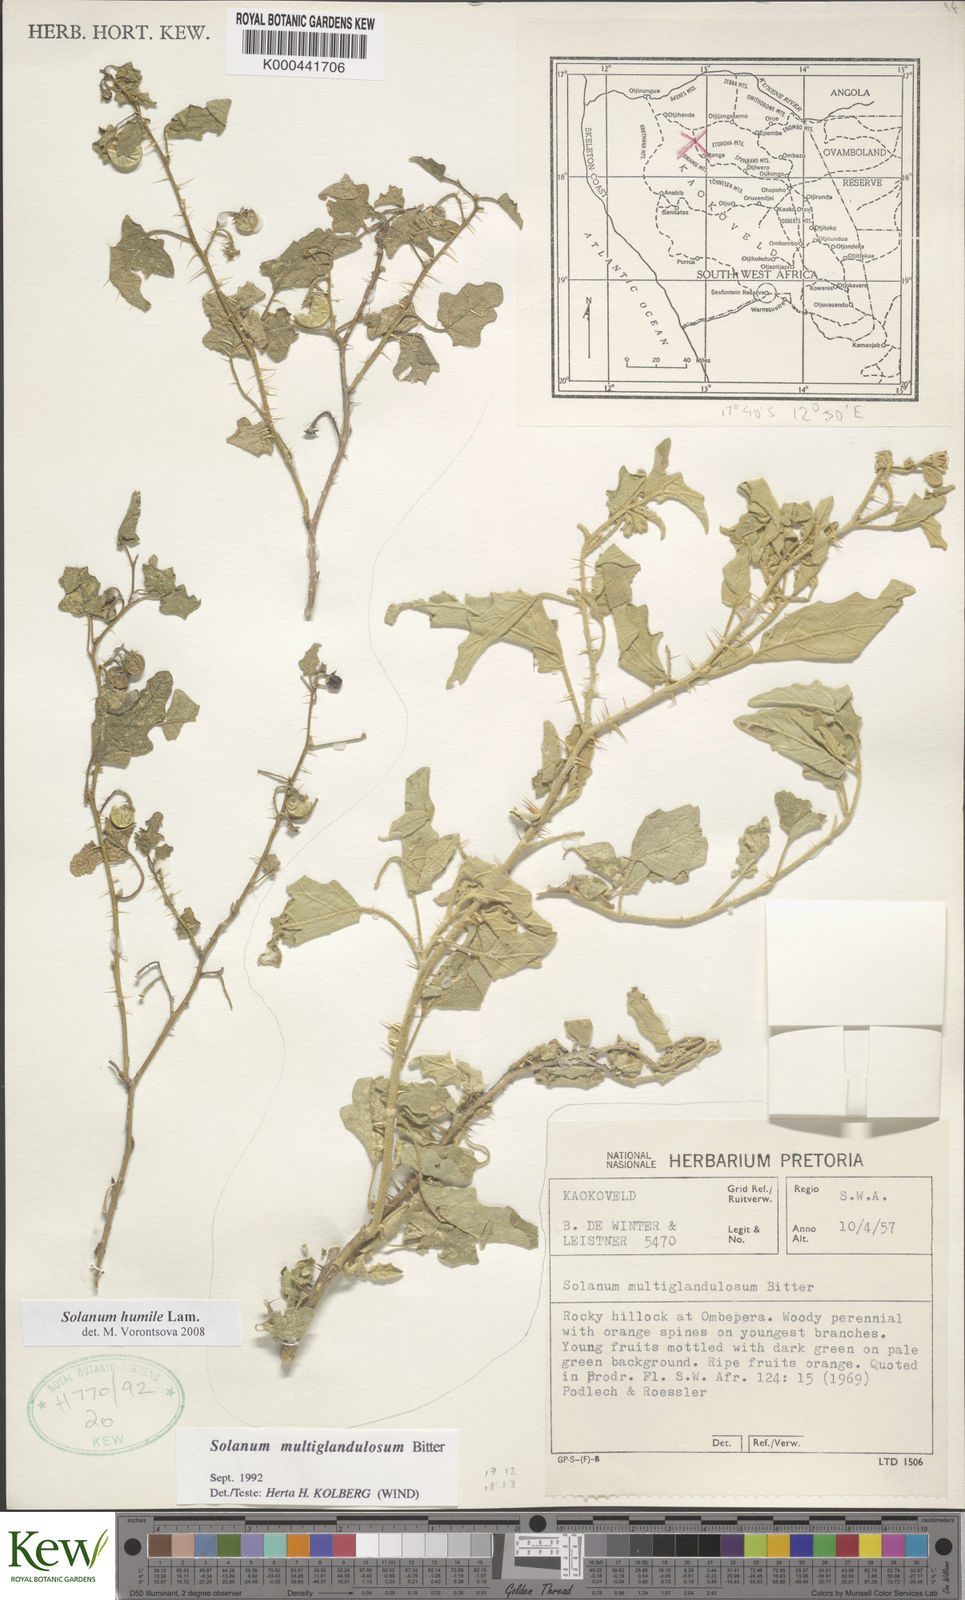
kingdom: Plantae
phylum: Tracheophyta
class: Magnoliopsida
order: Solanales
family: Solanaceae
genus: Solanum
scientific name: Solanum humile
